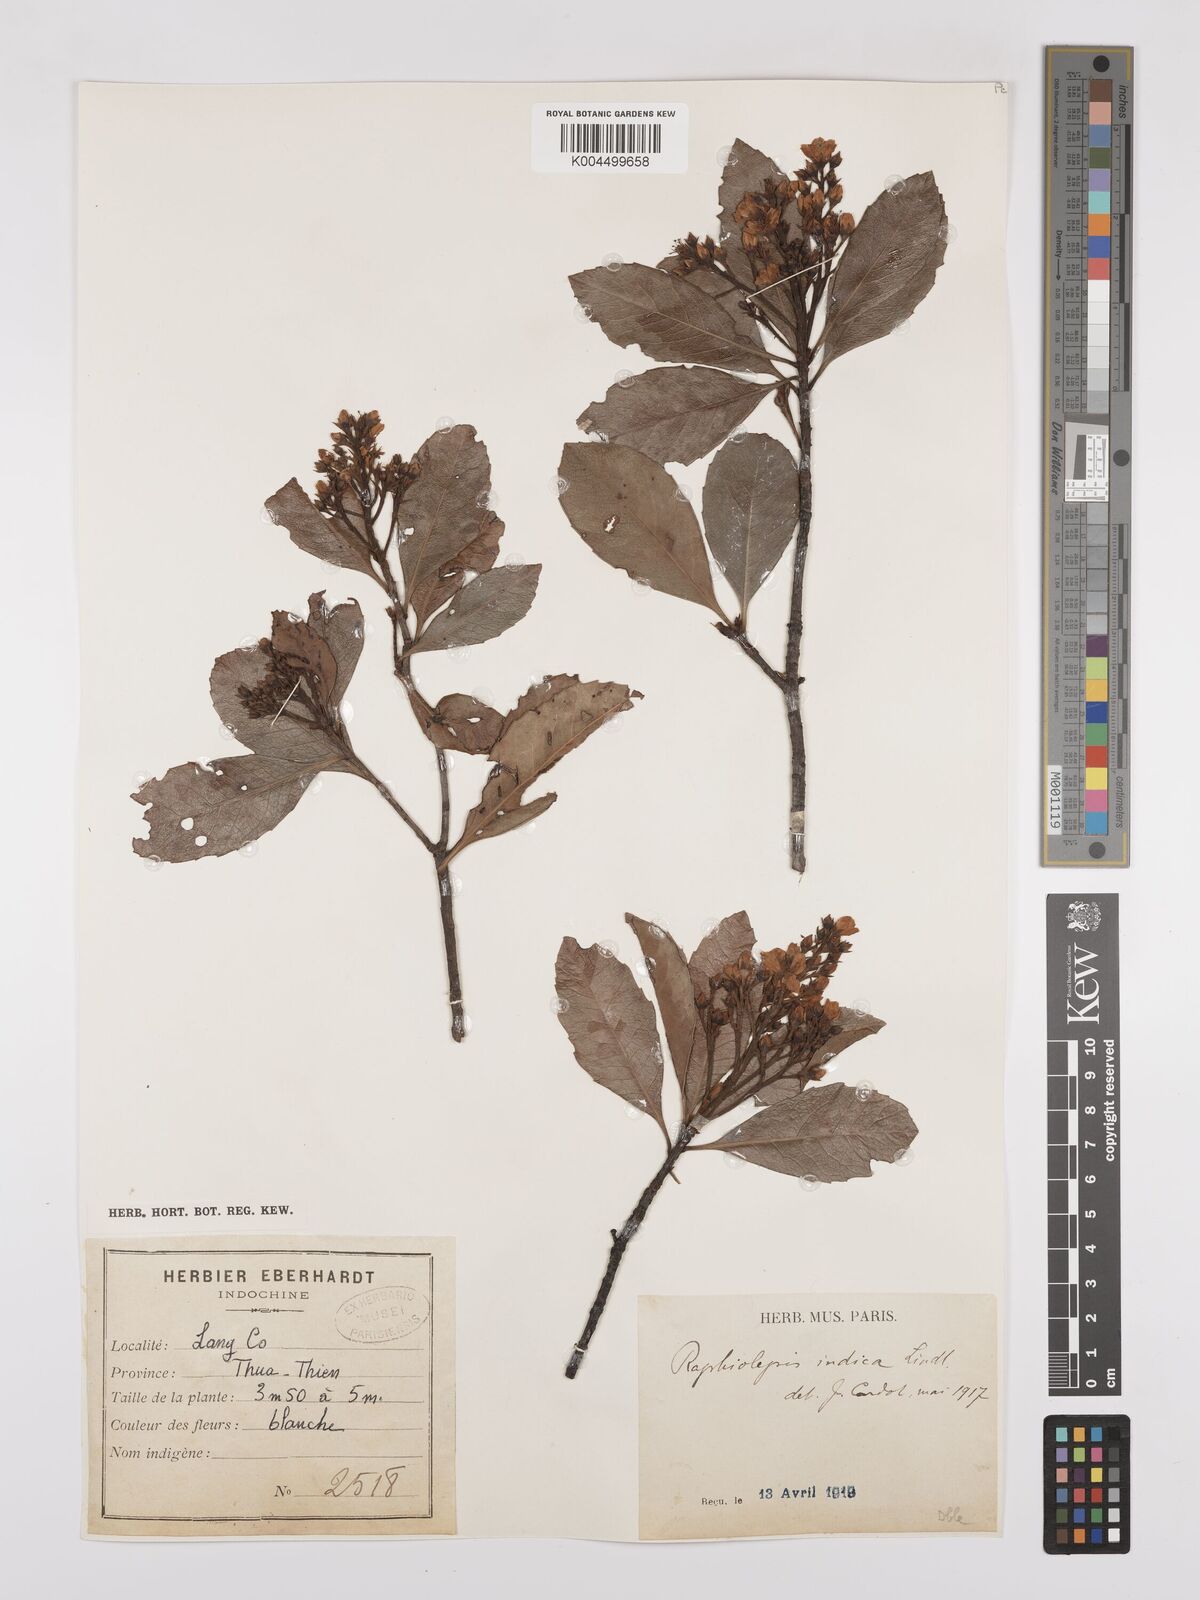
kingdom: Plantae
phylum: Tracheophyta
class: Magnoliopsida
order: Rosales
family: Rosaceae
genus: Rhaphiolepis
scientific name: Rhaphiolepis indica
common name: India-hawthorn
